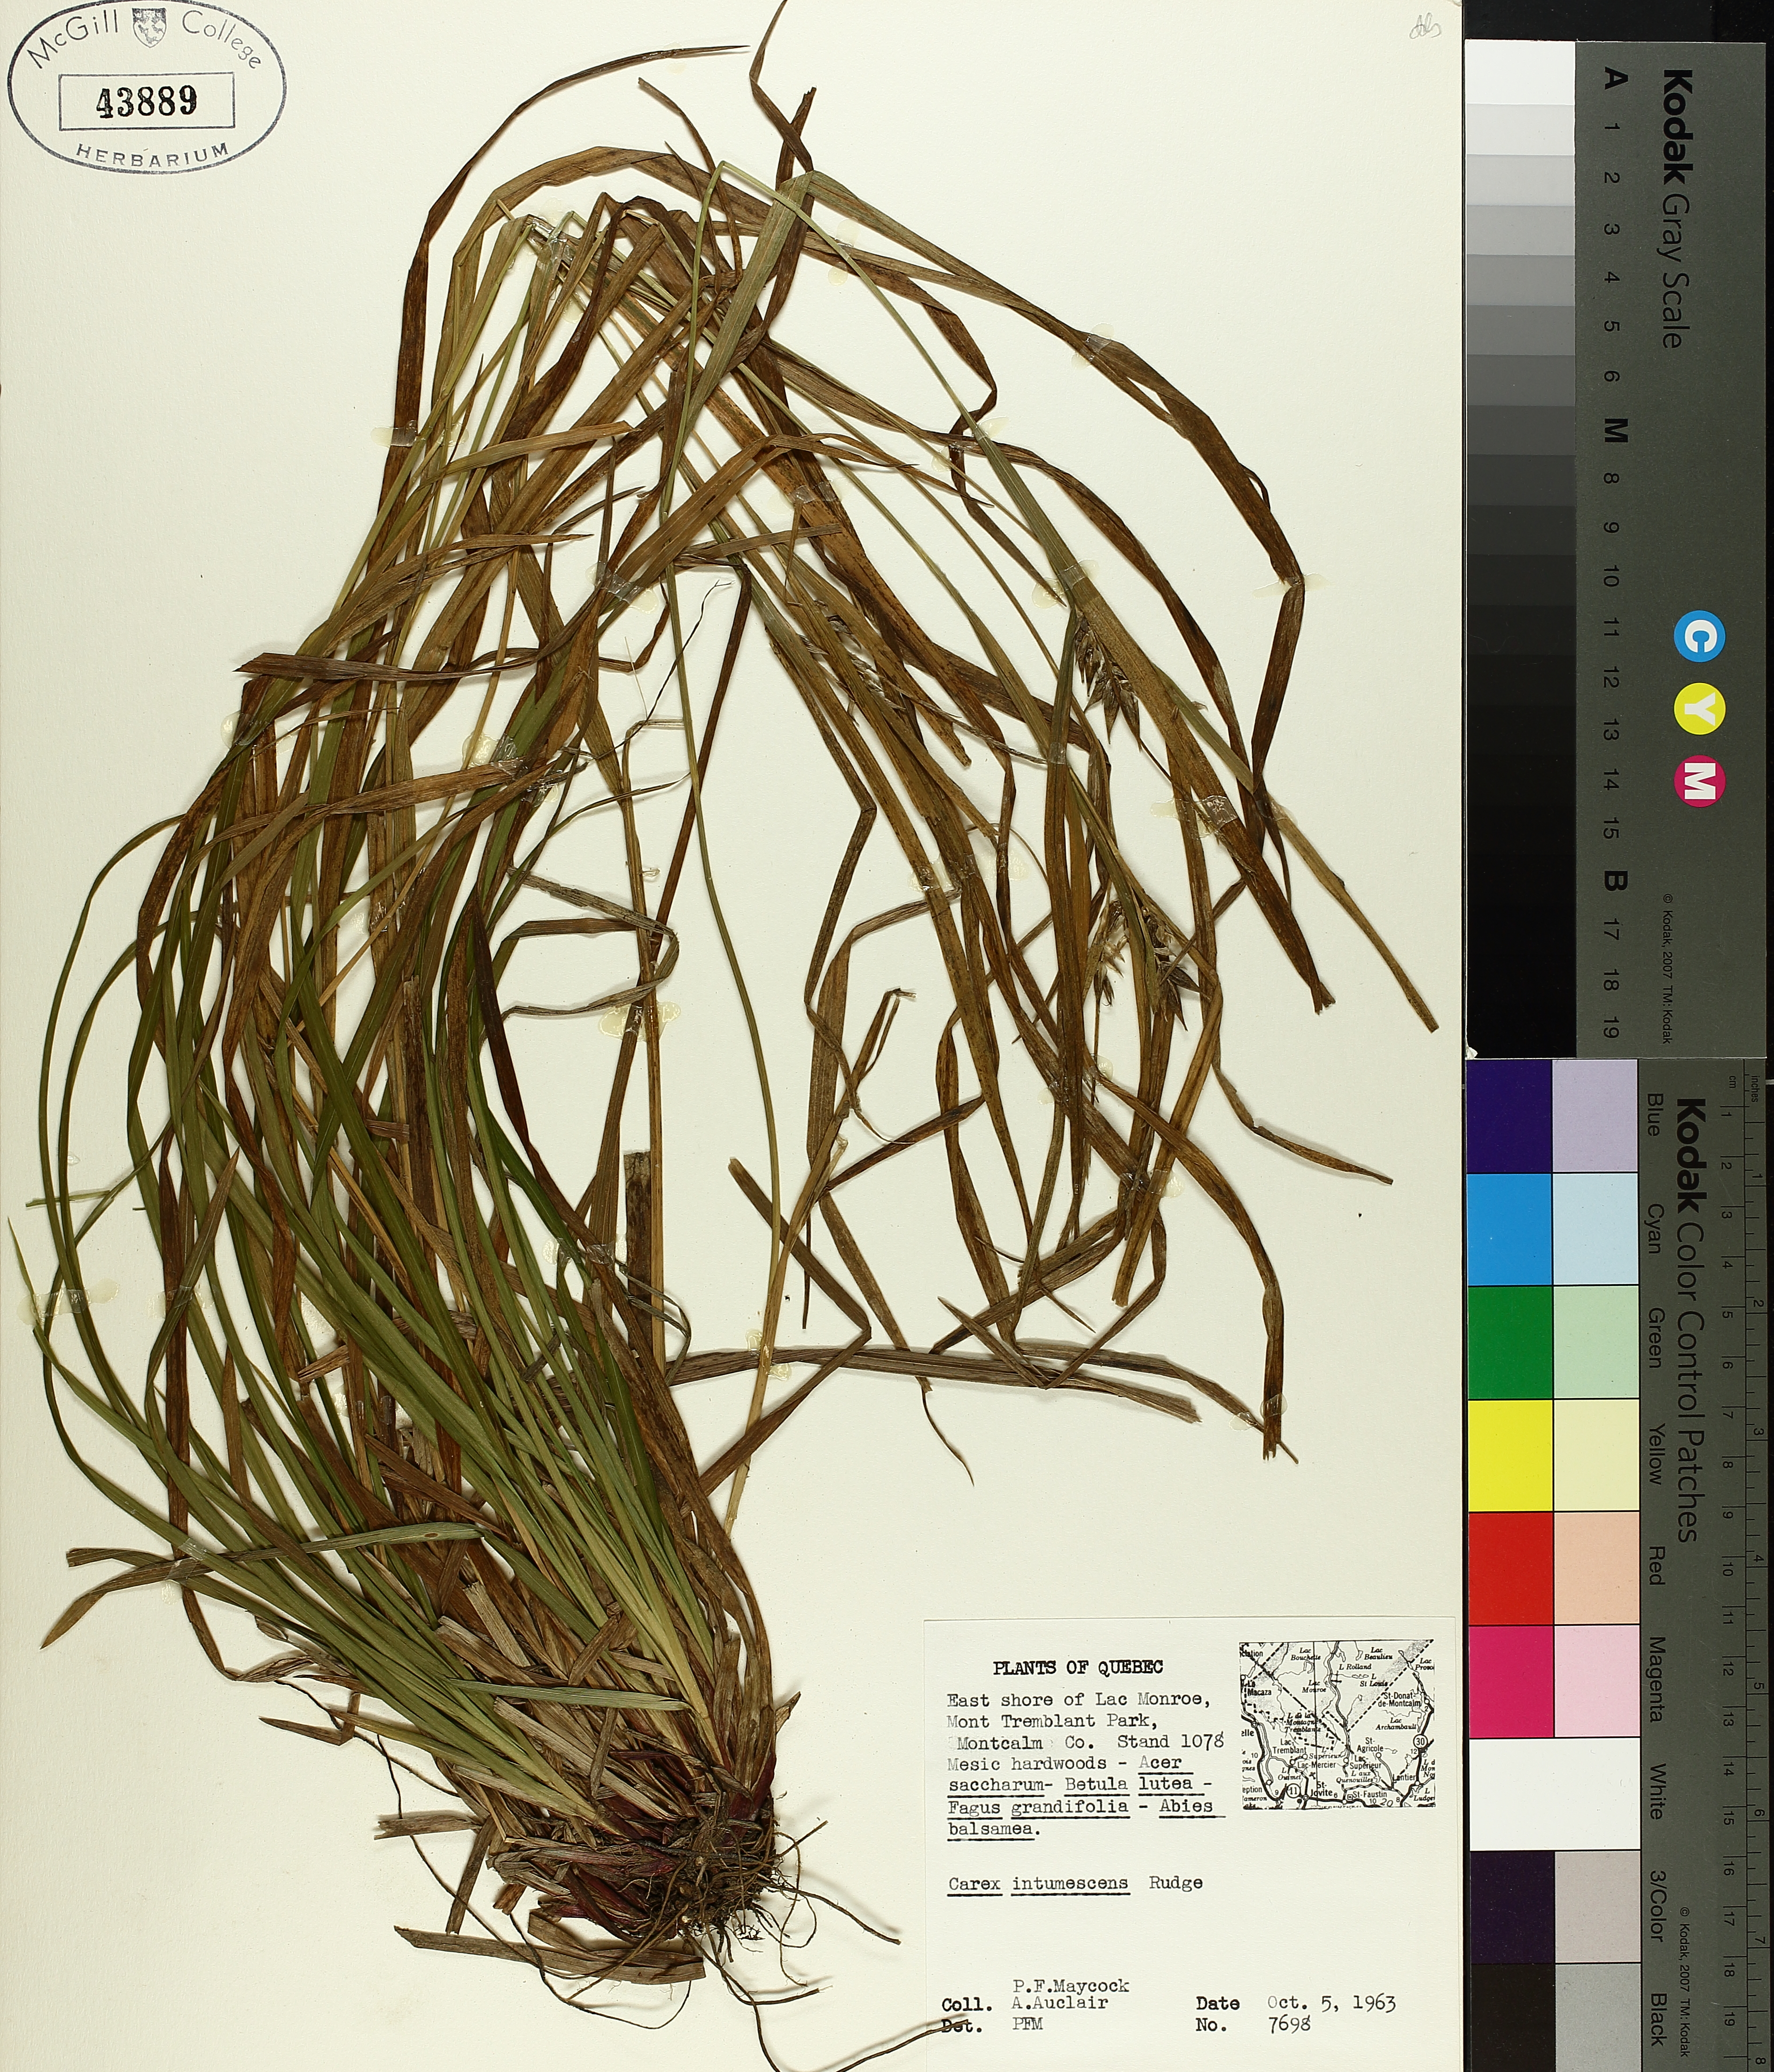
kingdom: Plantae
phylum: Tracheophyta
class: Liliopsida
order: Poales
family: Cyperaceae
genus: Carex
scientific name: Carex intumescens
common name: Greater bladder sedge
